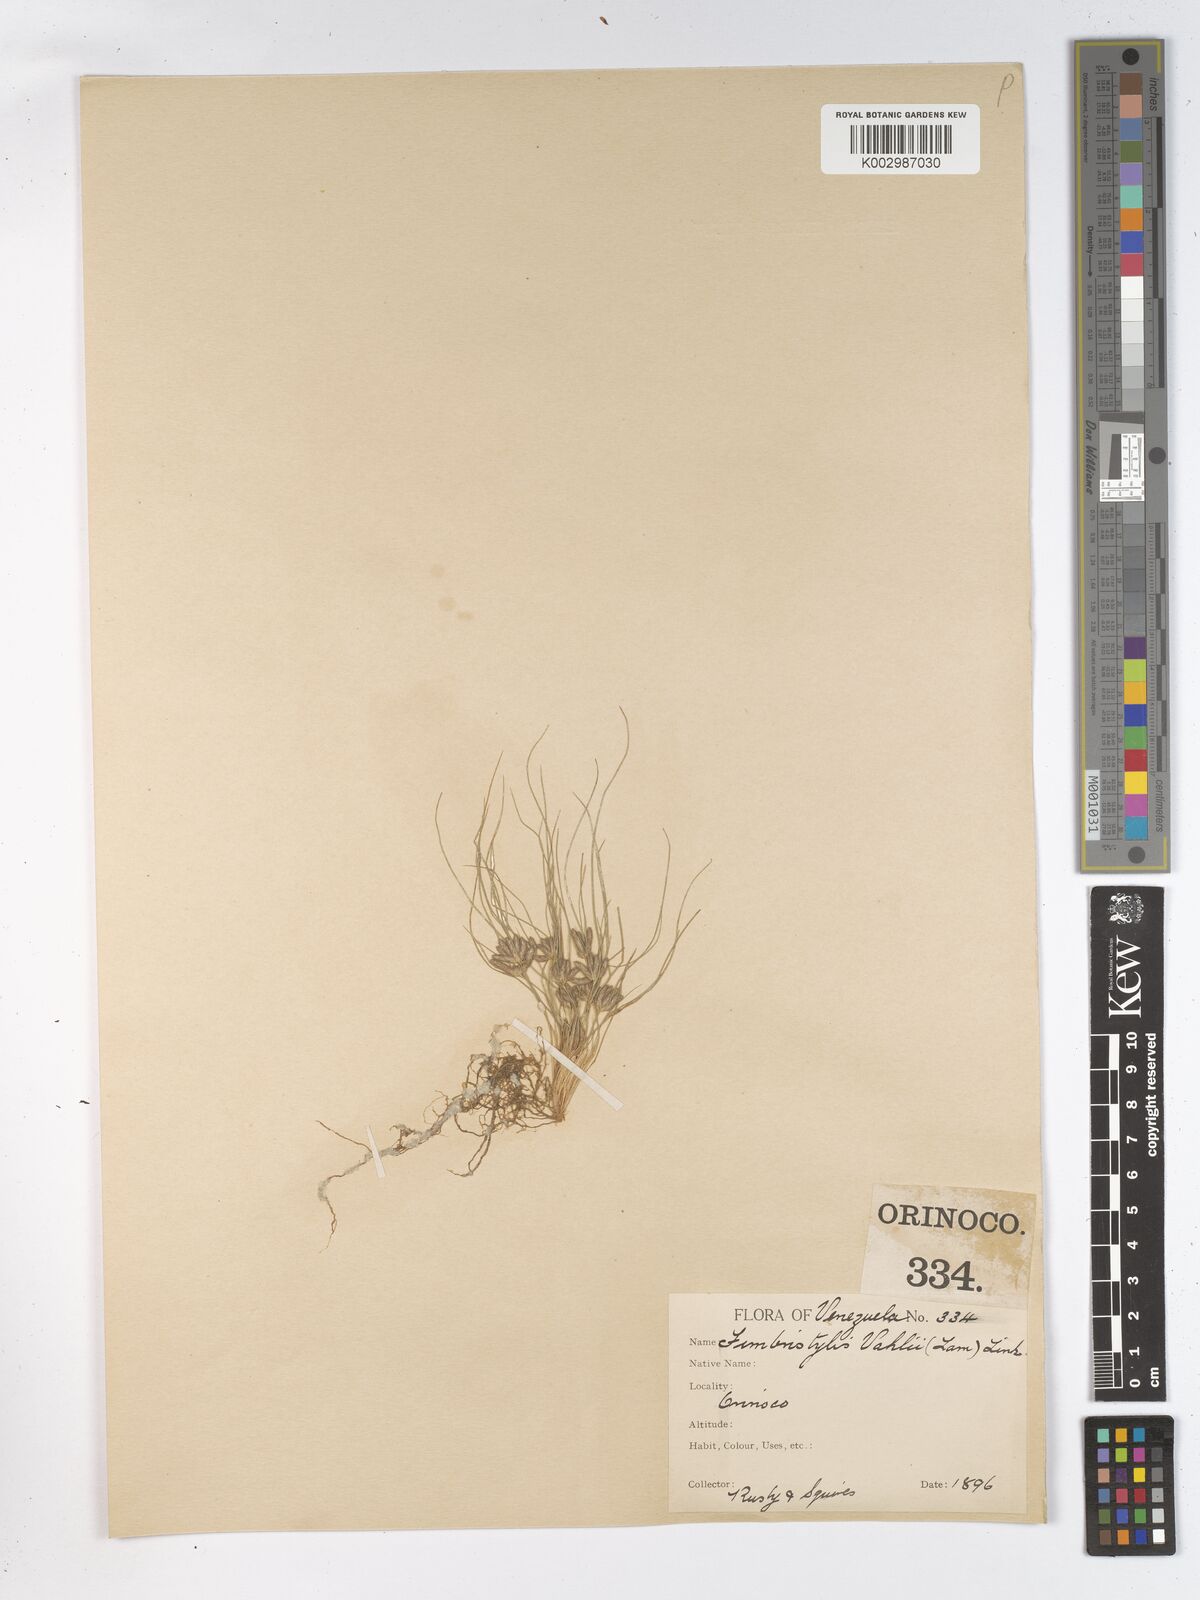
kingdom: Plantae
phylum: Tracheophyta
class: Liliopsida
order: Poales
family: Cyperaceae
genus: Fimbristylis
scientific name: Fimbristylis vahlii
